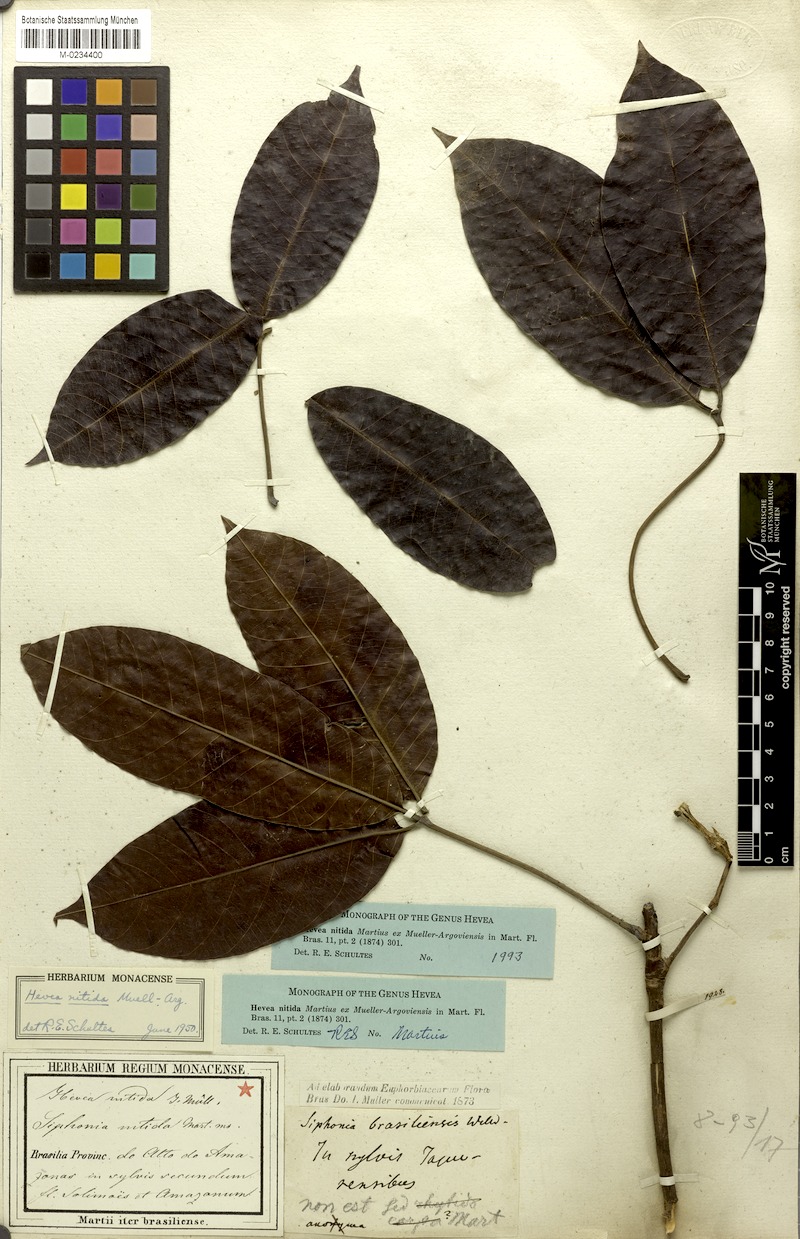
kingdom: Plantae
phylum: Tracheophyta
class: Magnoliopsida
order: Malpighiales
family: Euphorbiaceae
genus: Hevea
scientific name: Hevea nitida
